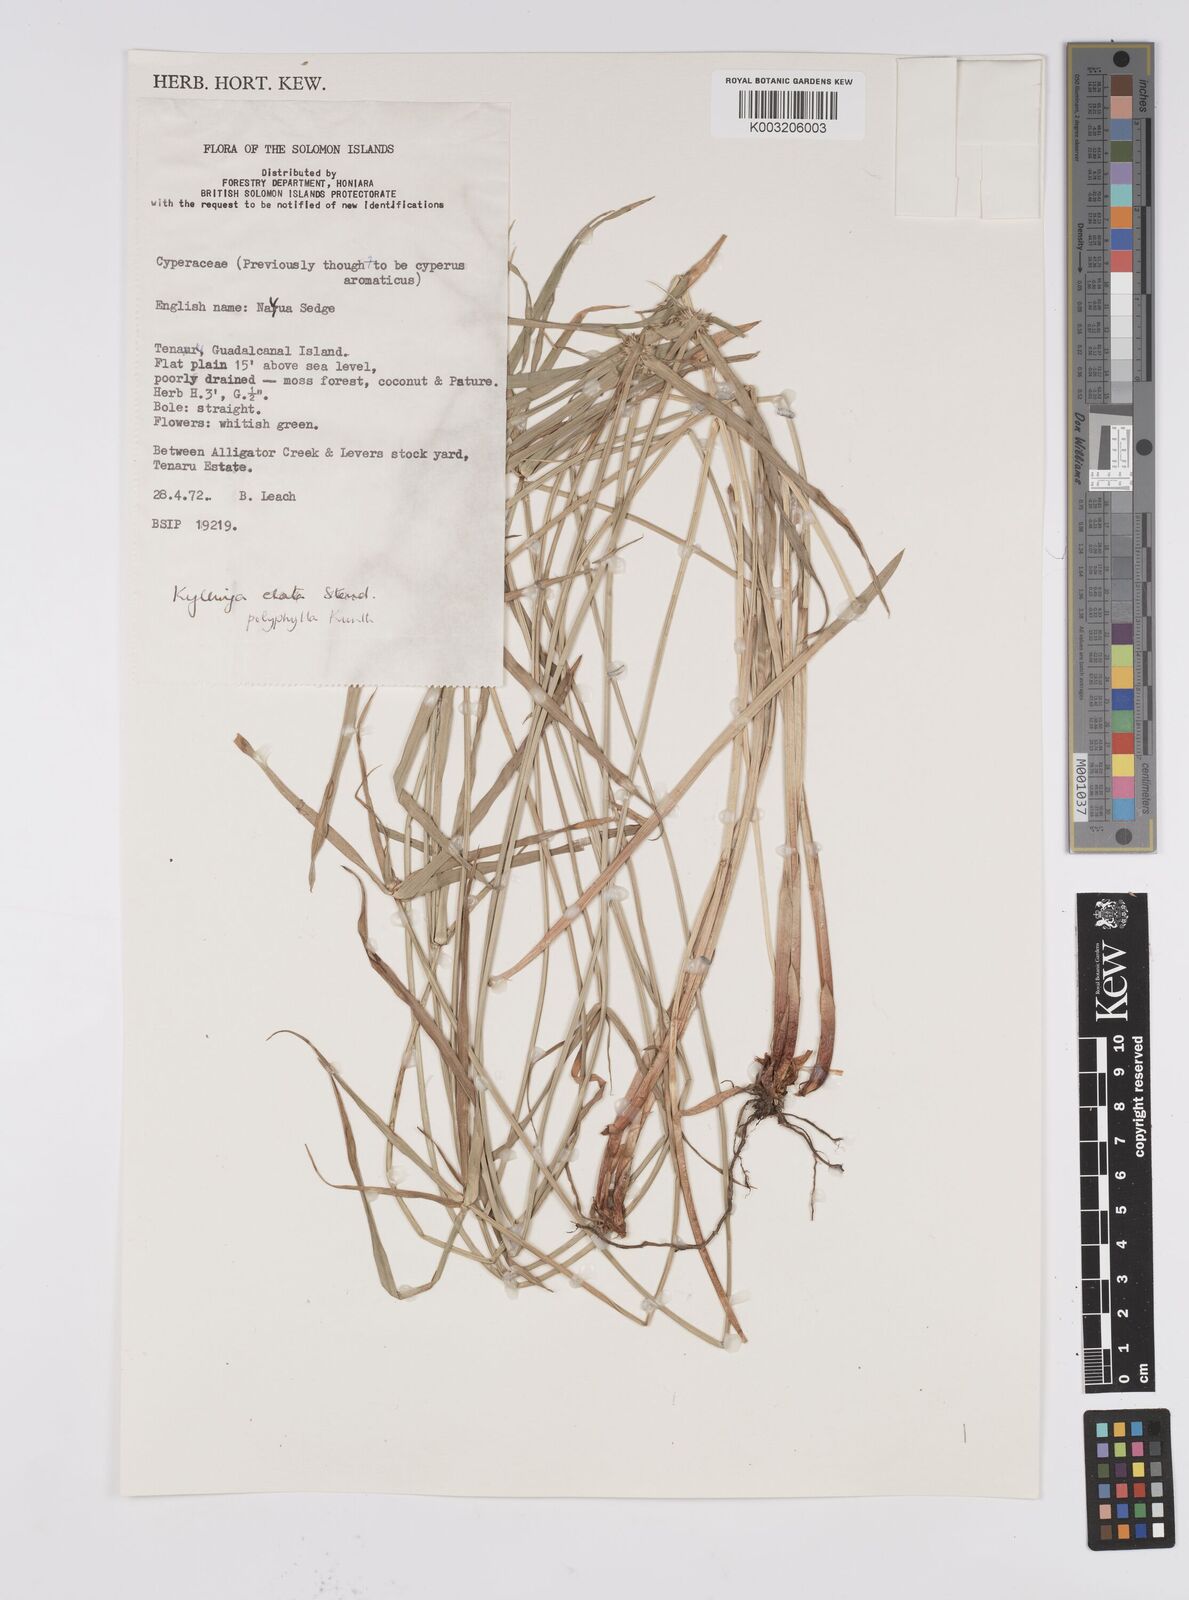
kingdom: Plantae
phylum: Tracheophyta
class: Liliopsida
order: Poales
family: Cyperaceae
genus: Cyperus
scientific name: Cyperus bulbosus
